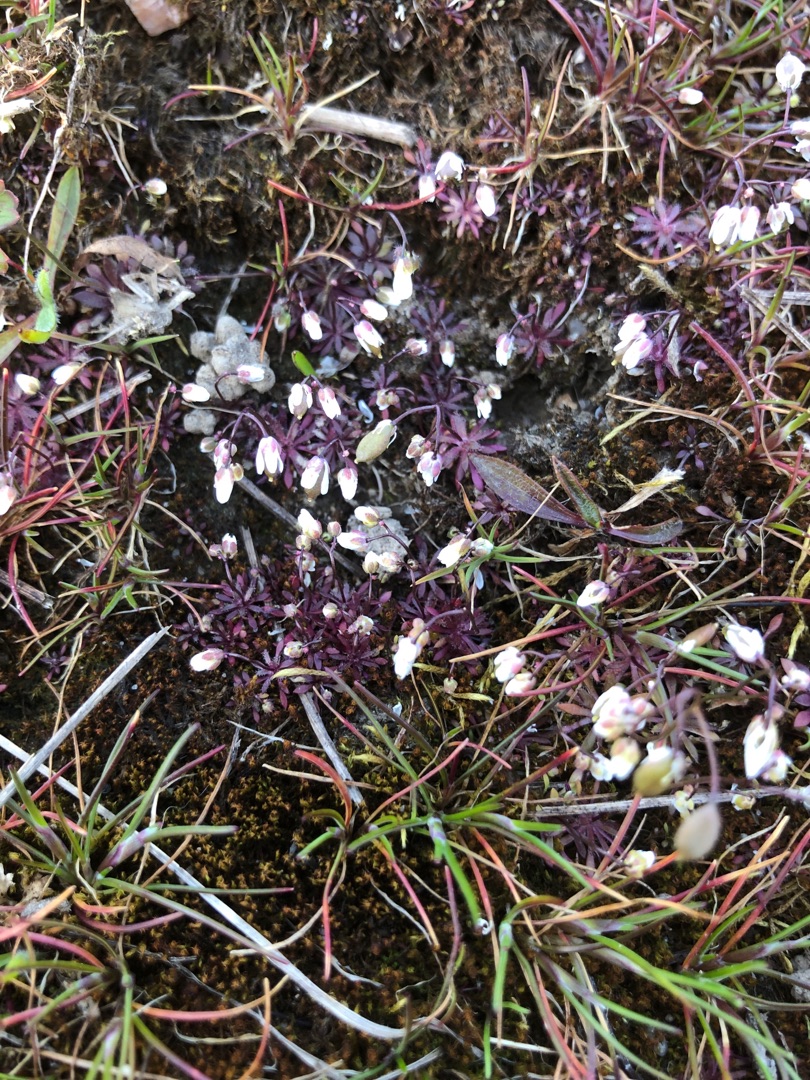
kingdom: Plantae
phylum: Tracheophyta
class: Magnoliopsida
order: Brassicales
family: Brassicaceae
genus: Draba
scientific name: Draba verna
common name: Vår-gæslingeblomst
